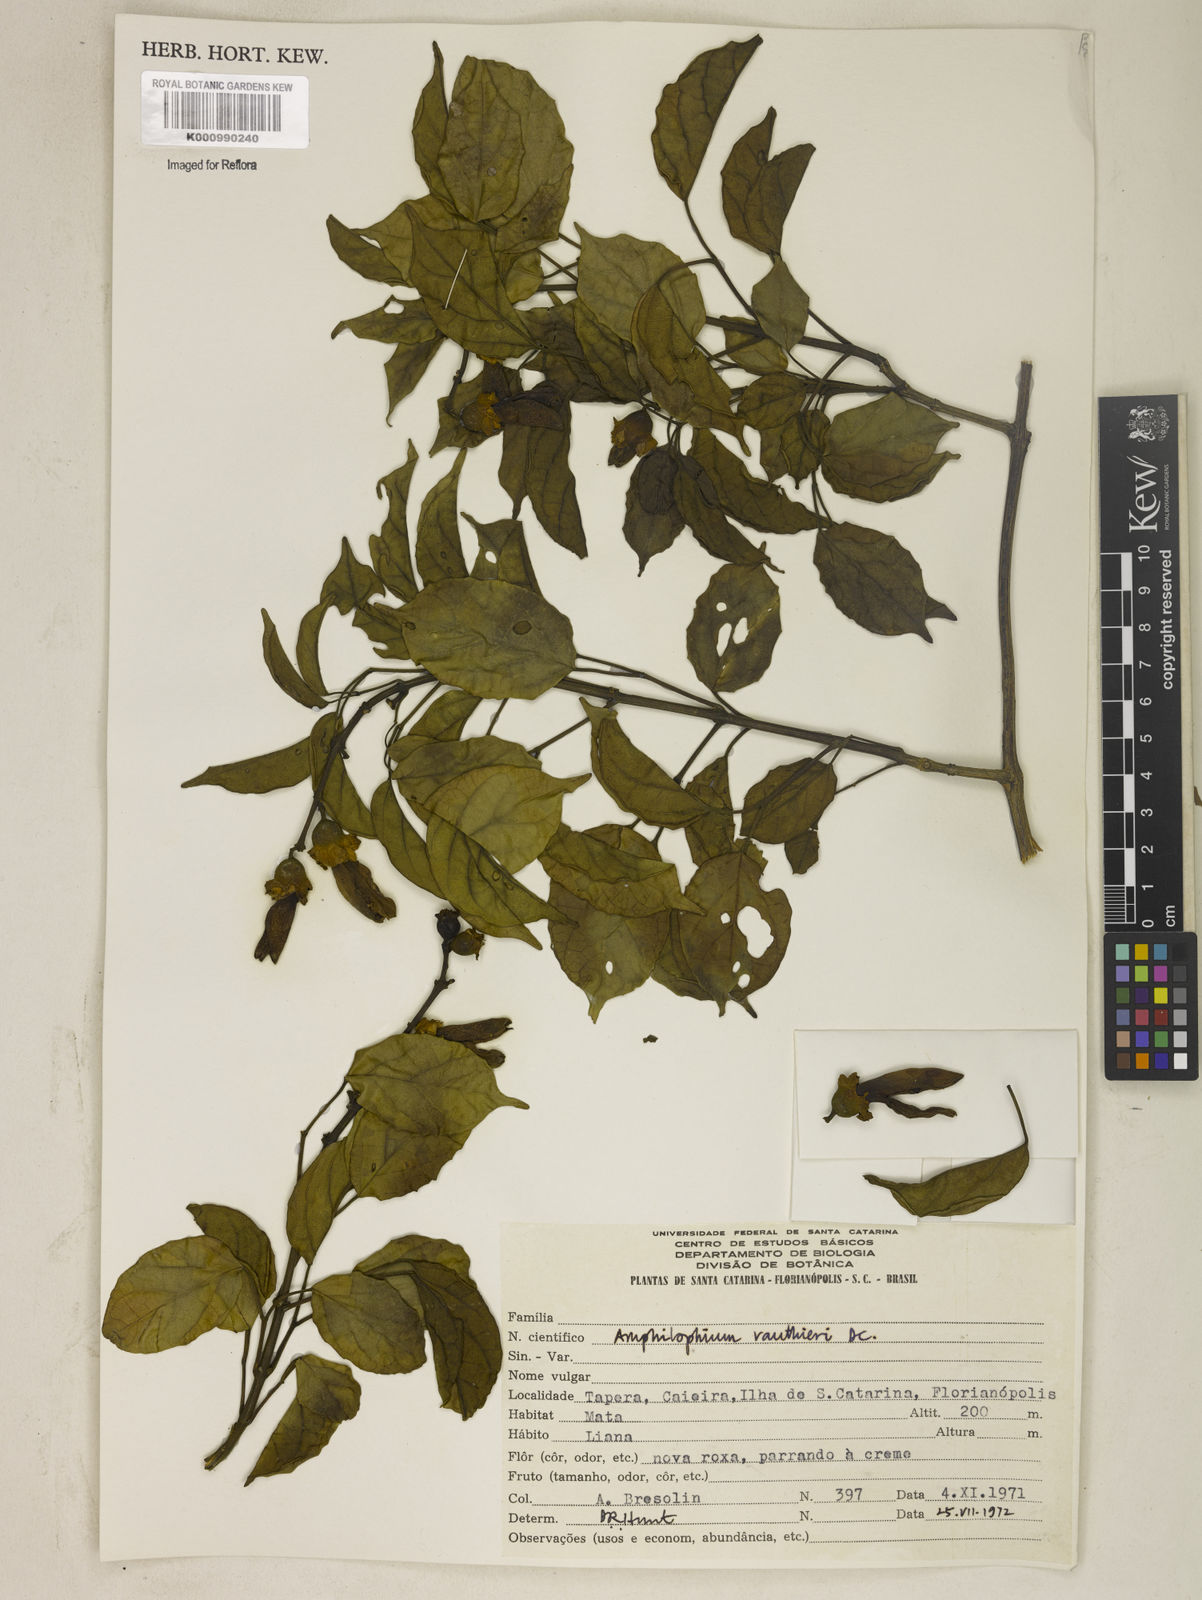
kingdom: Plantae
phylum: Tracheophyta
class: Magnoliopsida
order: Lamiales
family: Bignoniaceae
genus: Amphilophium
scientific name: Amphilophium paniculatum
